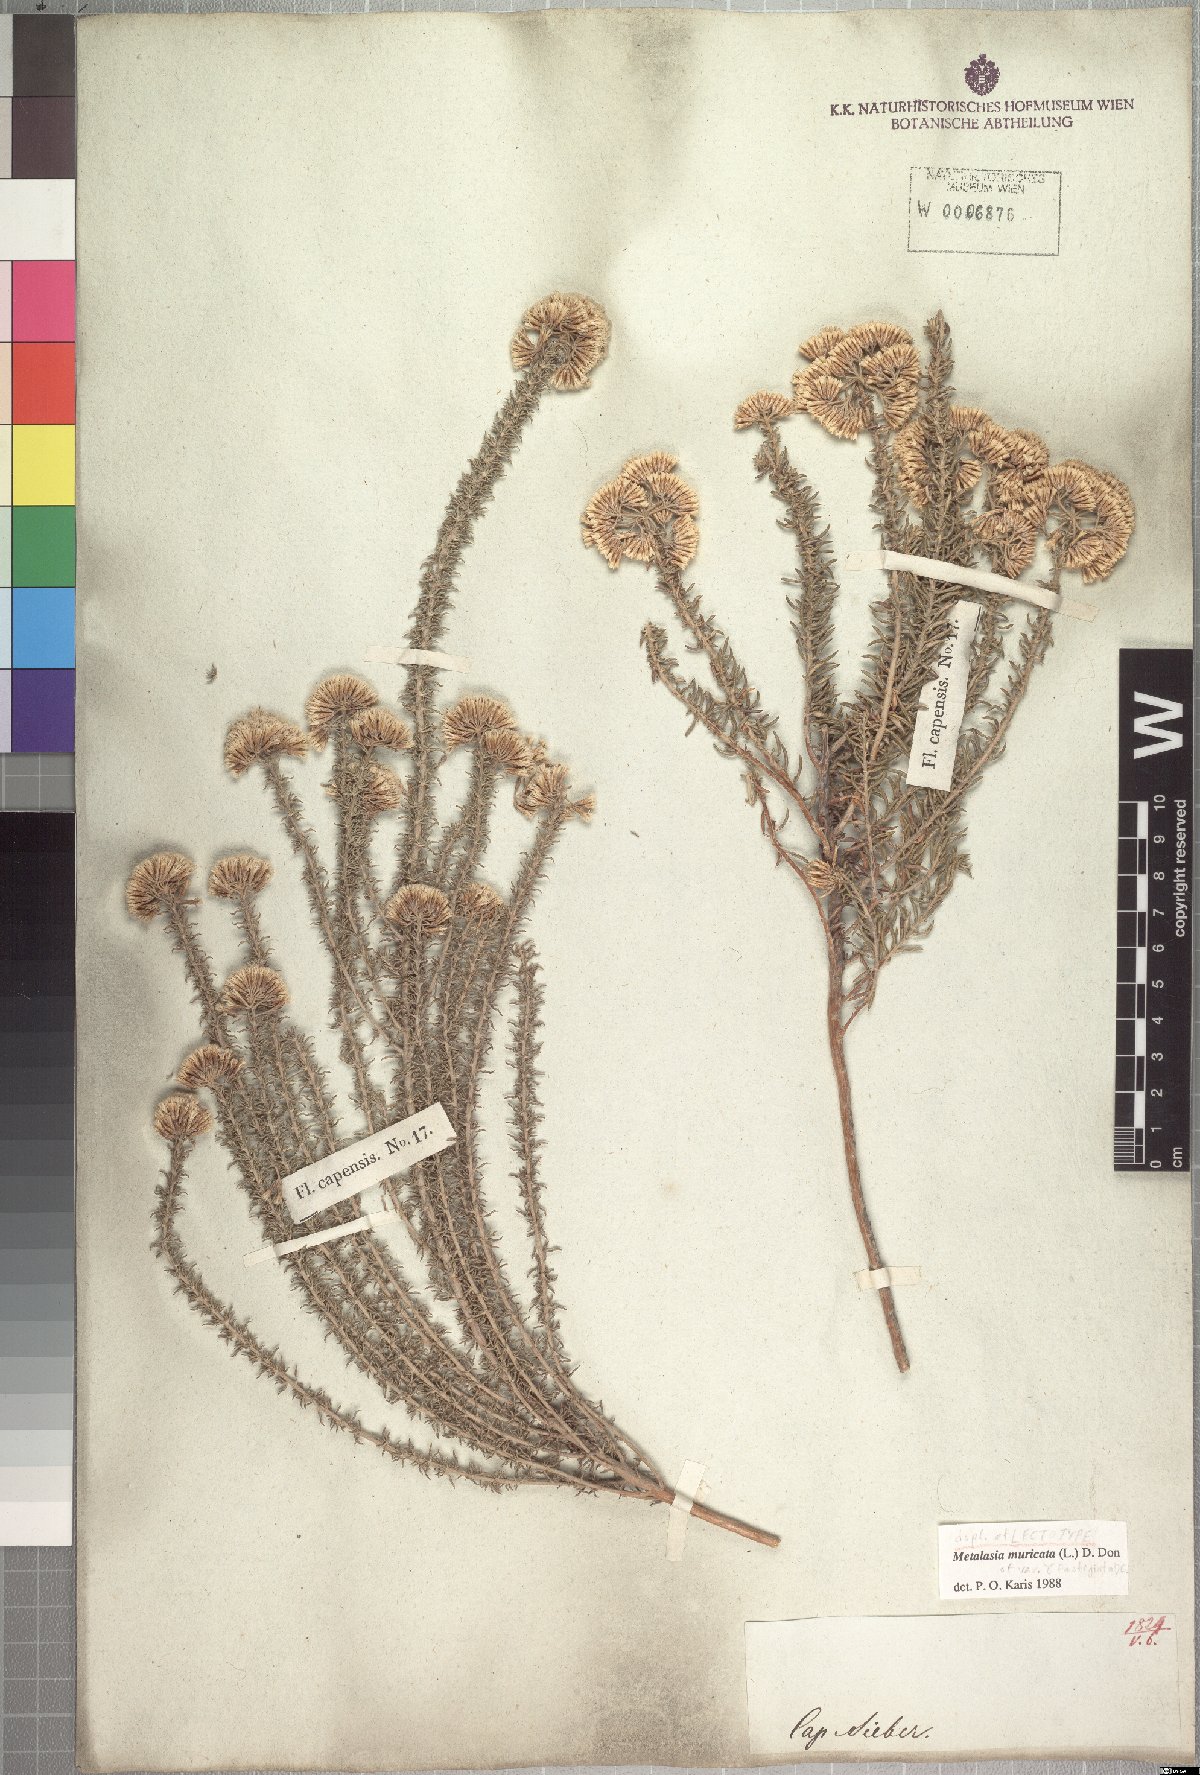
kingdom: Plantae
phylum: Tracheophyta
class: Magnoliopsida
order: Asterales
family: Asteraceae
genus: Metalasia
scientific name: Metalasia muricata
